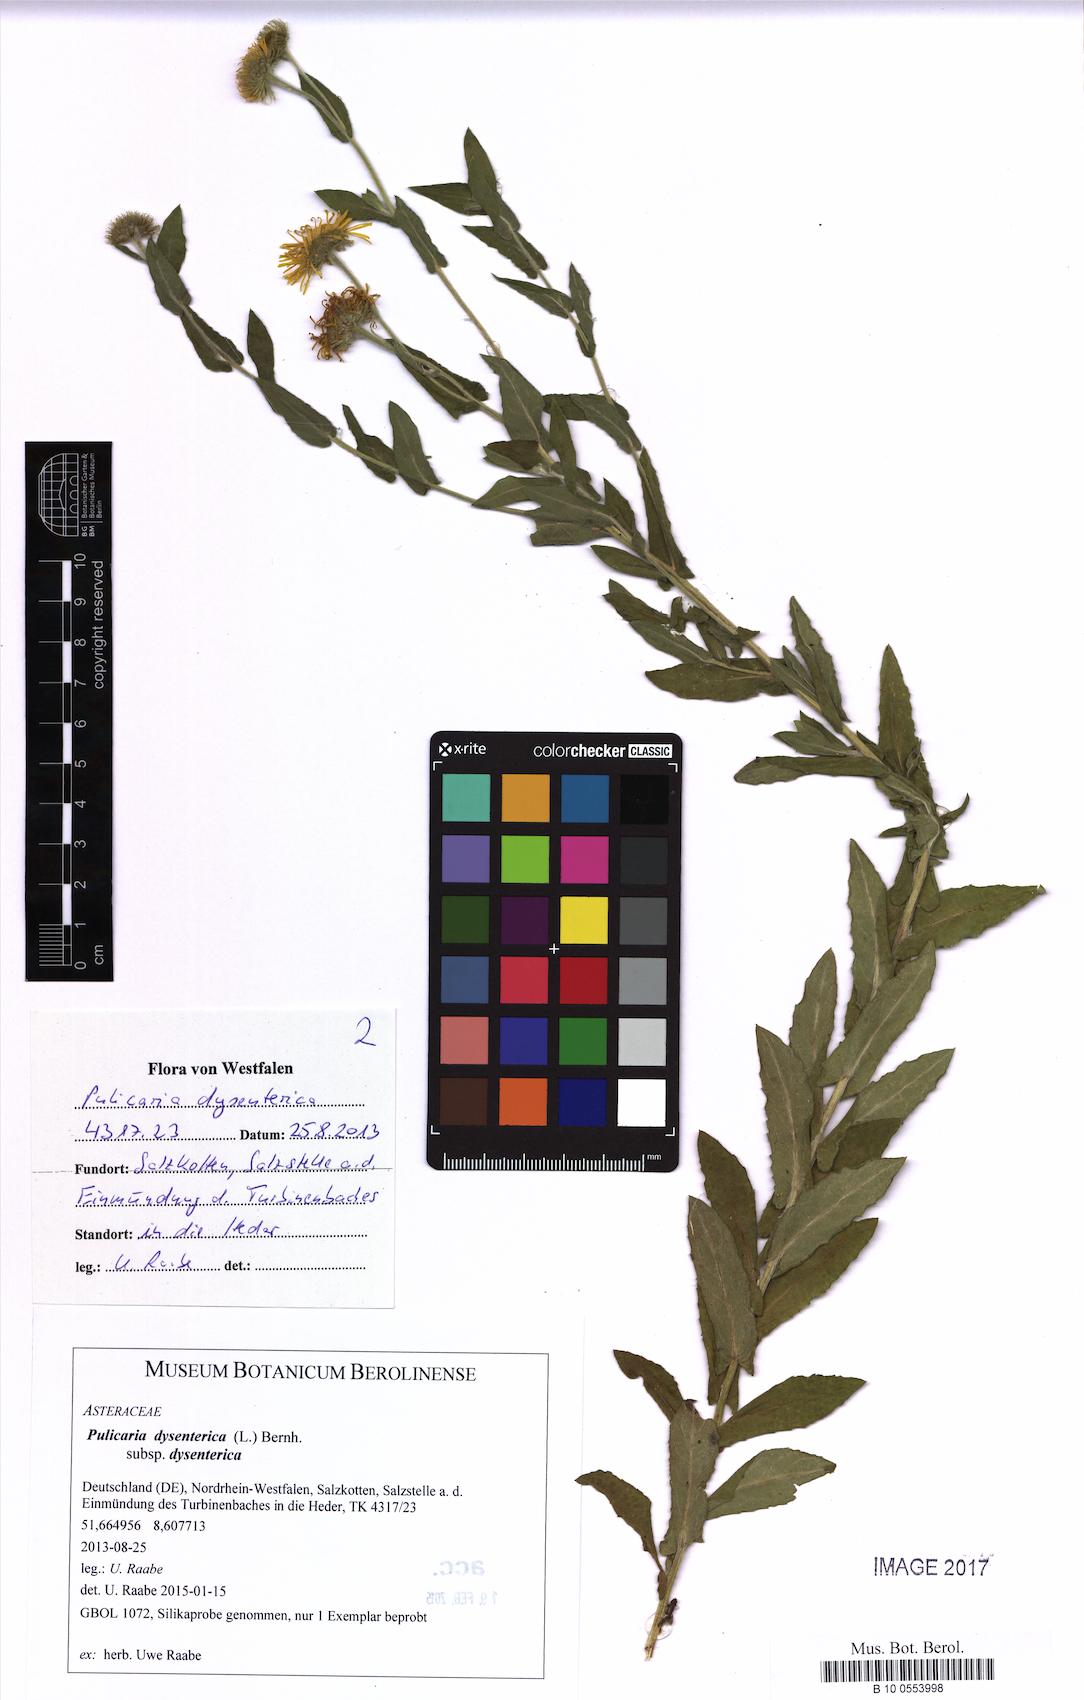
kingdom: Plantae
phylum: Tracheophyta
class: Magnoliopsida
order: Asterales
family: Asteraceae
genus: Pulicaria
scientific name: Pulicaria dysenterica
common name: Common fleabane
